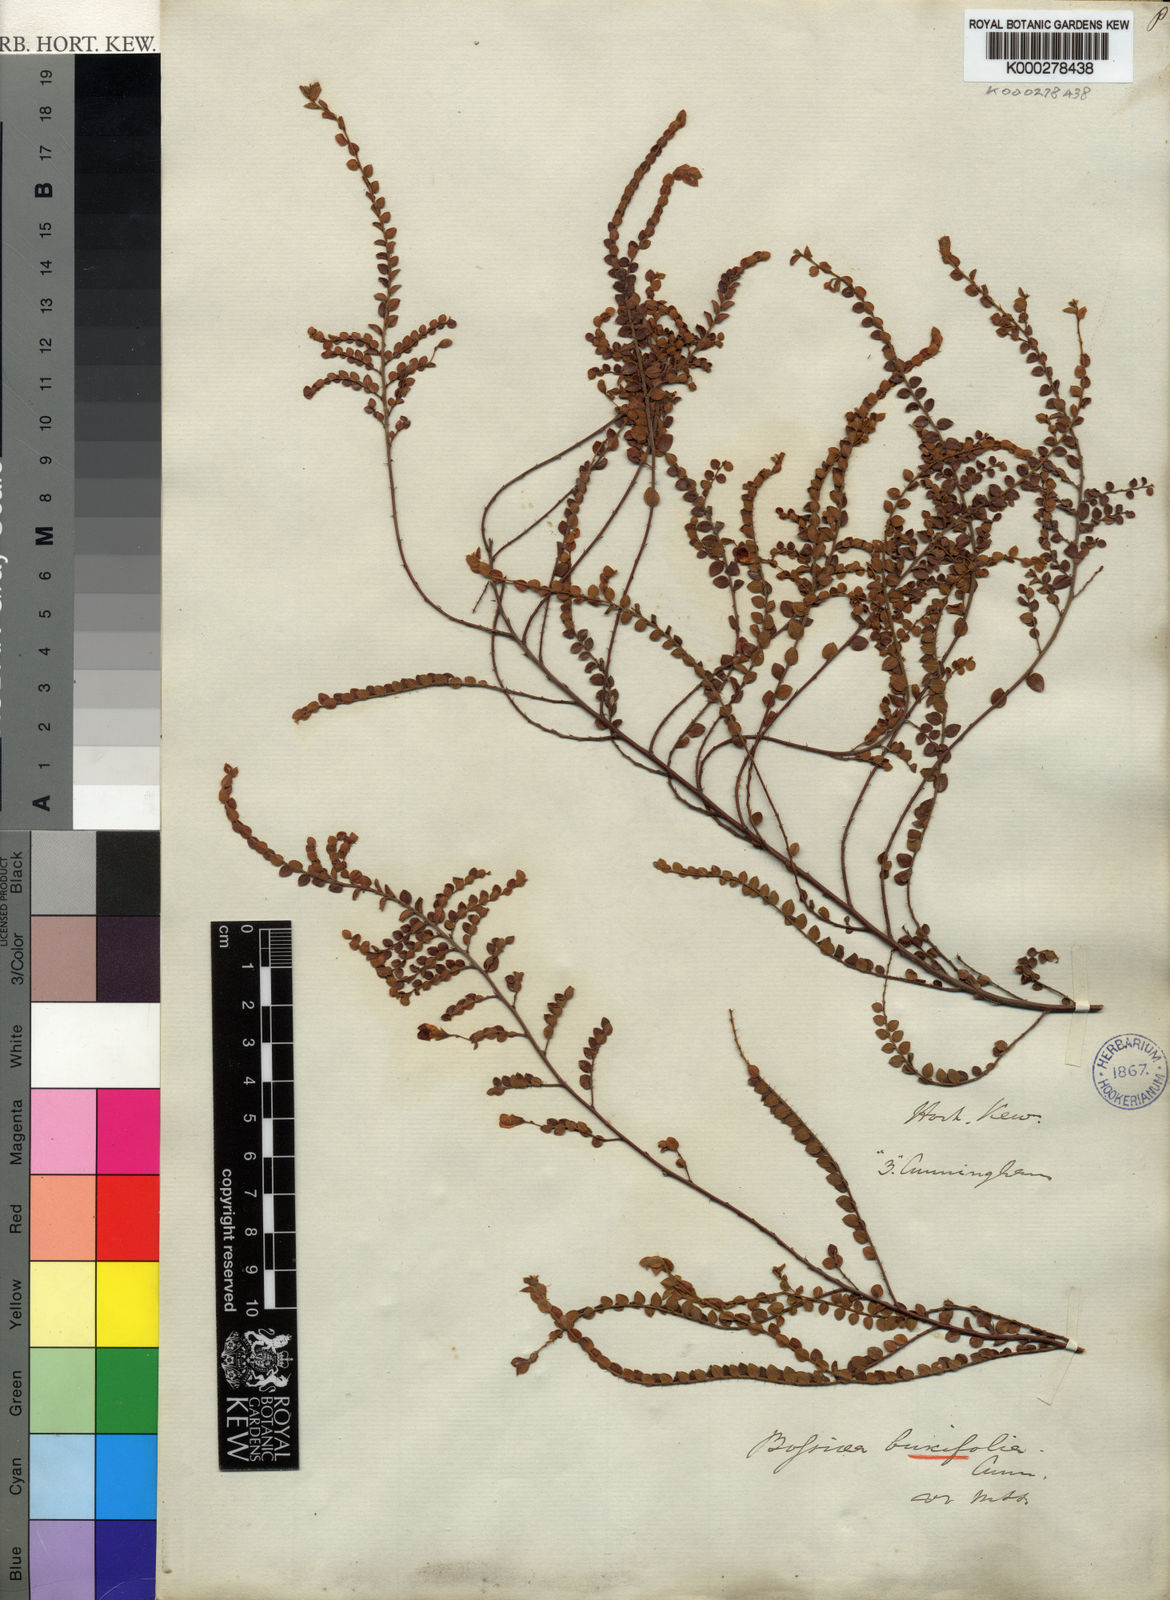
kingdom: Plantae
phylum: Tracheophyta
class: Magnoliopsida
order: Fabales
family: Fabaceae
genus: Bossiaea
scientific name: Bossiaea buxifolia
